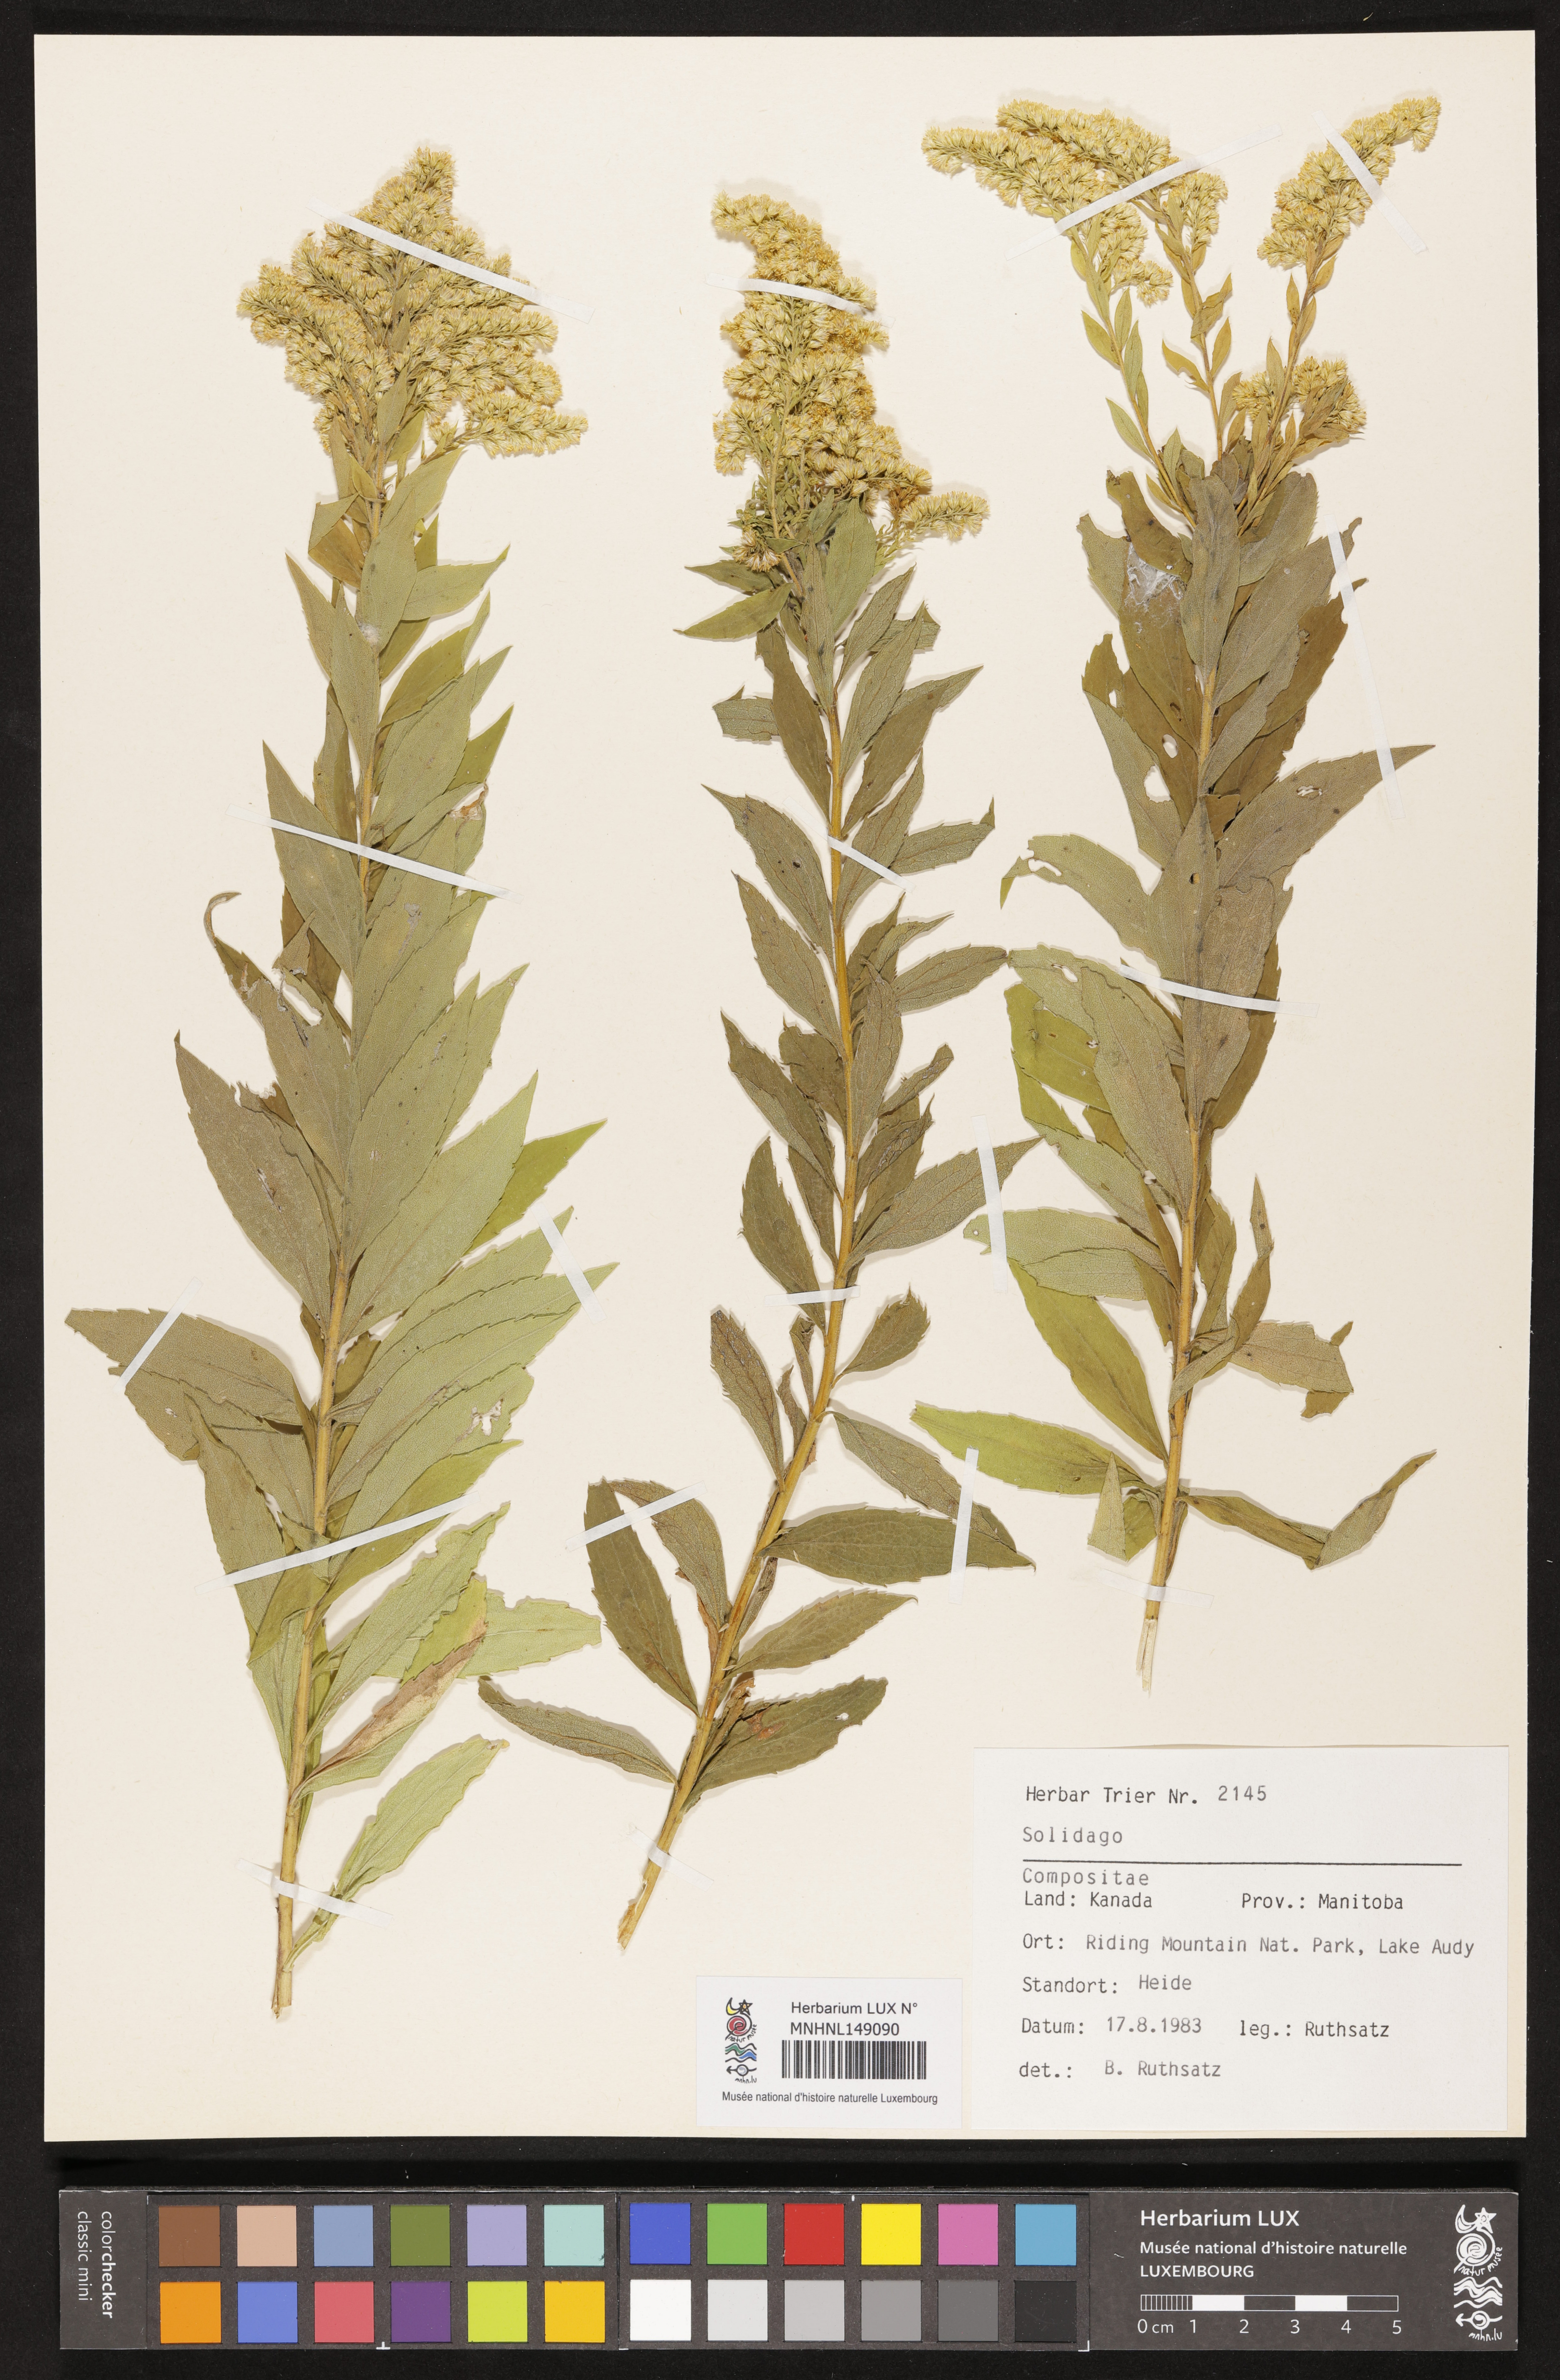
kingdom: Plantae
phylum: Tracheophyta
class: Magnoliopsida
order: Asterales
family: Asteraceae
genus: Solidago
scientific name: Solidago
